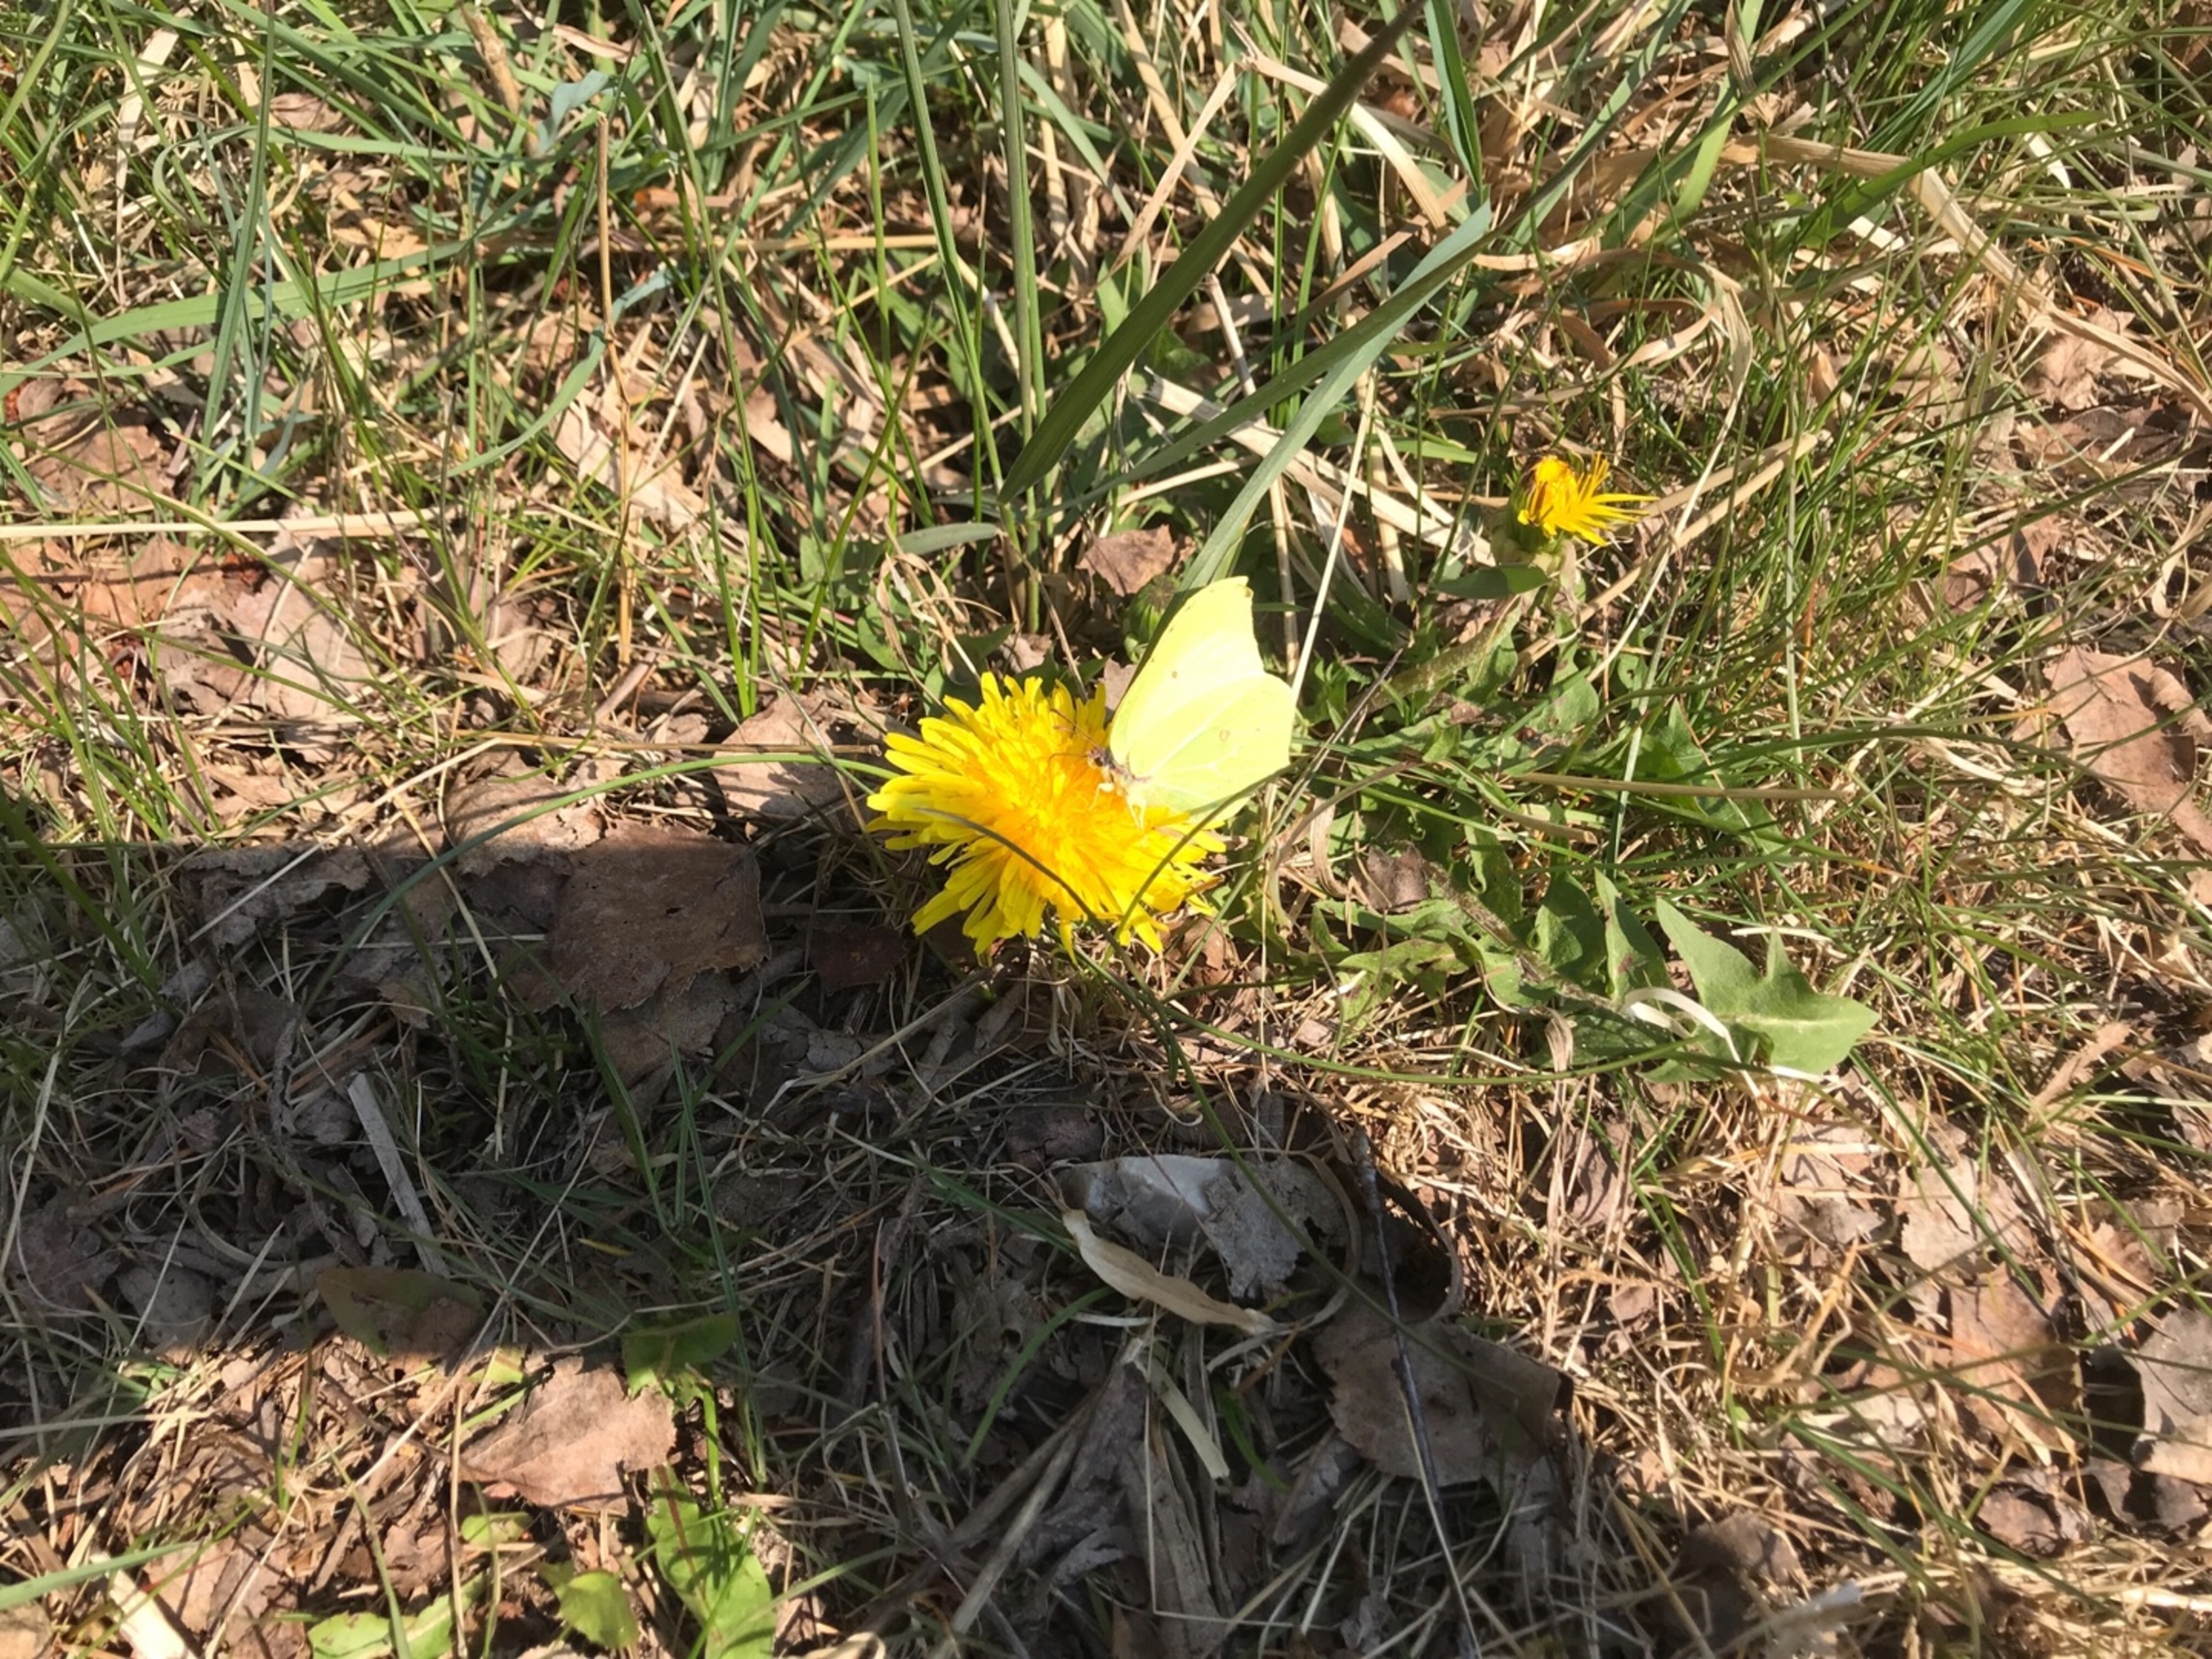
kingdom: Animalia
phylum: Arthropoda
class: Insecta
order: Lepidoptera
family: Pieridae
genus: Gonepteryx
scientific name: Gonepteryx rhamni
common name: Citronsommerfugl
